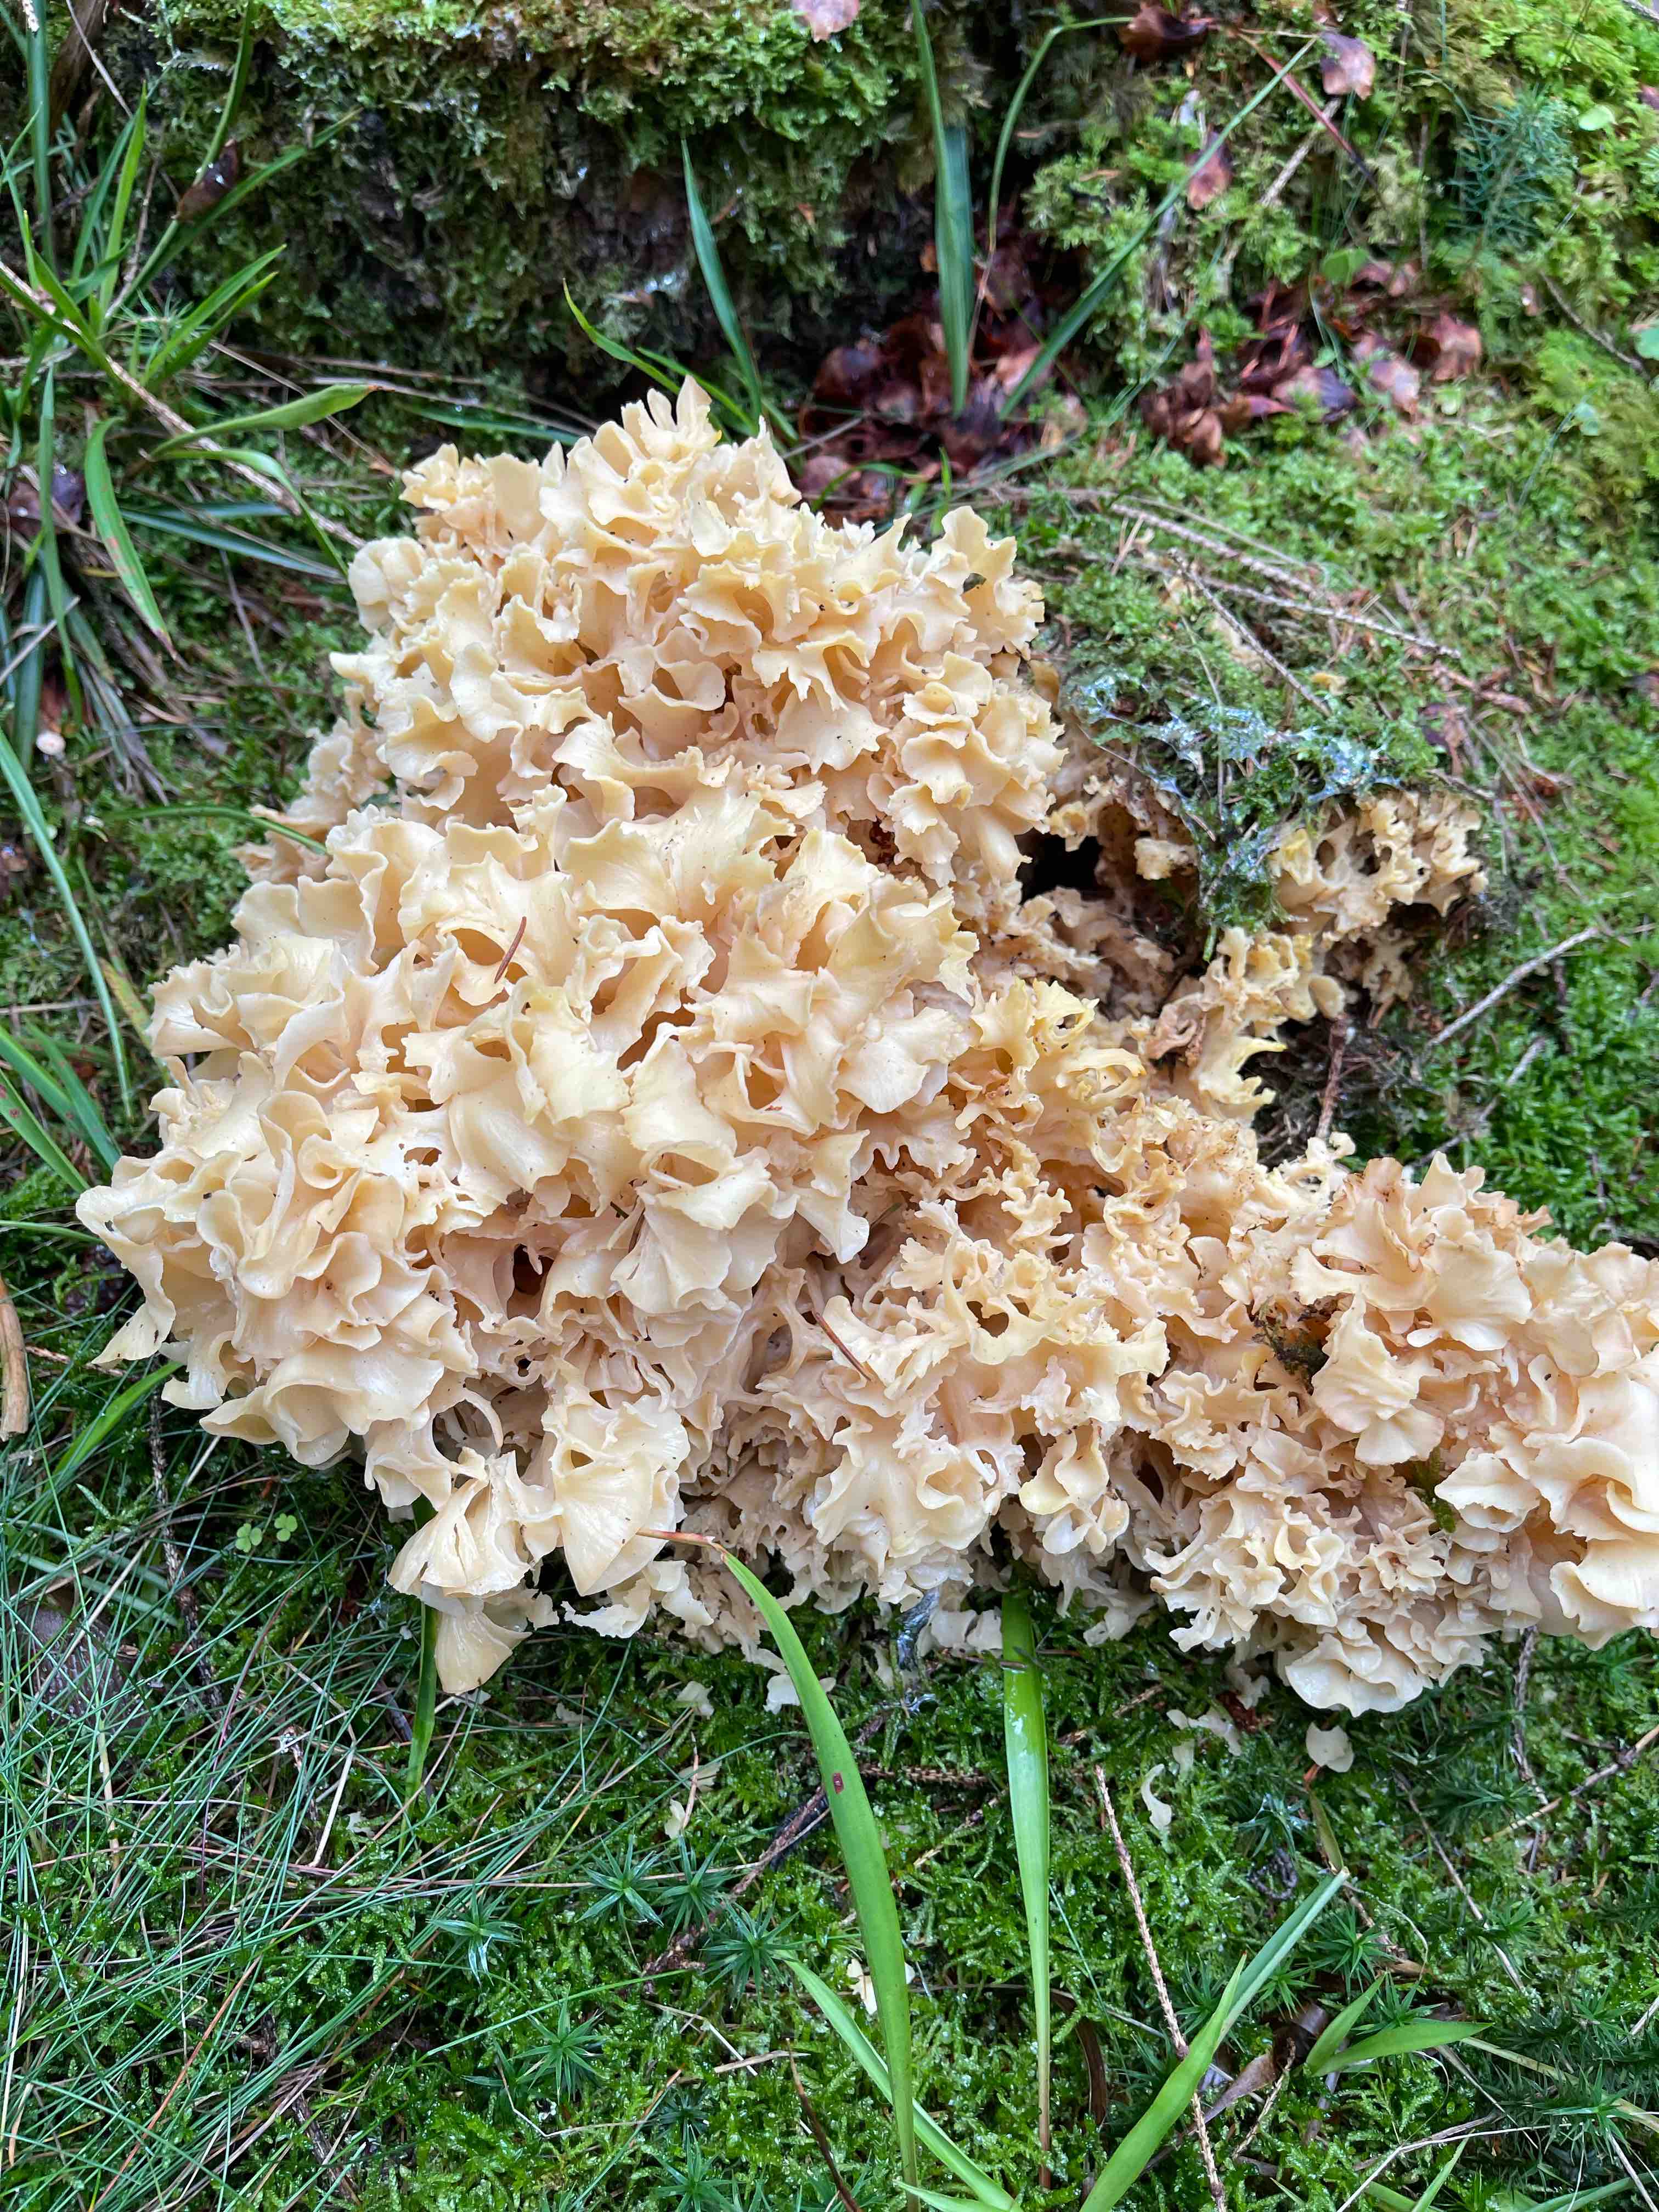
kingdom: Fungi
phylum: Basidiomycota
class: Agaricomycetes
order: Polyporales
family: Sparassidaceae
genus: Sparassis
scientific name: Sparassis crispa
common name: kruset blomkålssvamp
